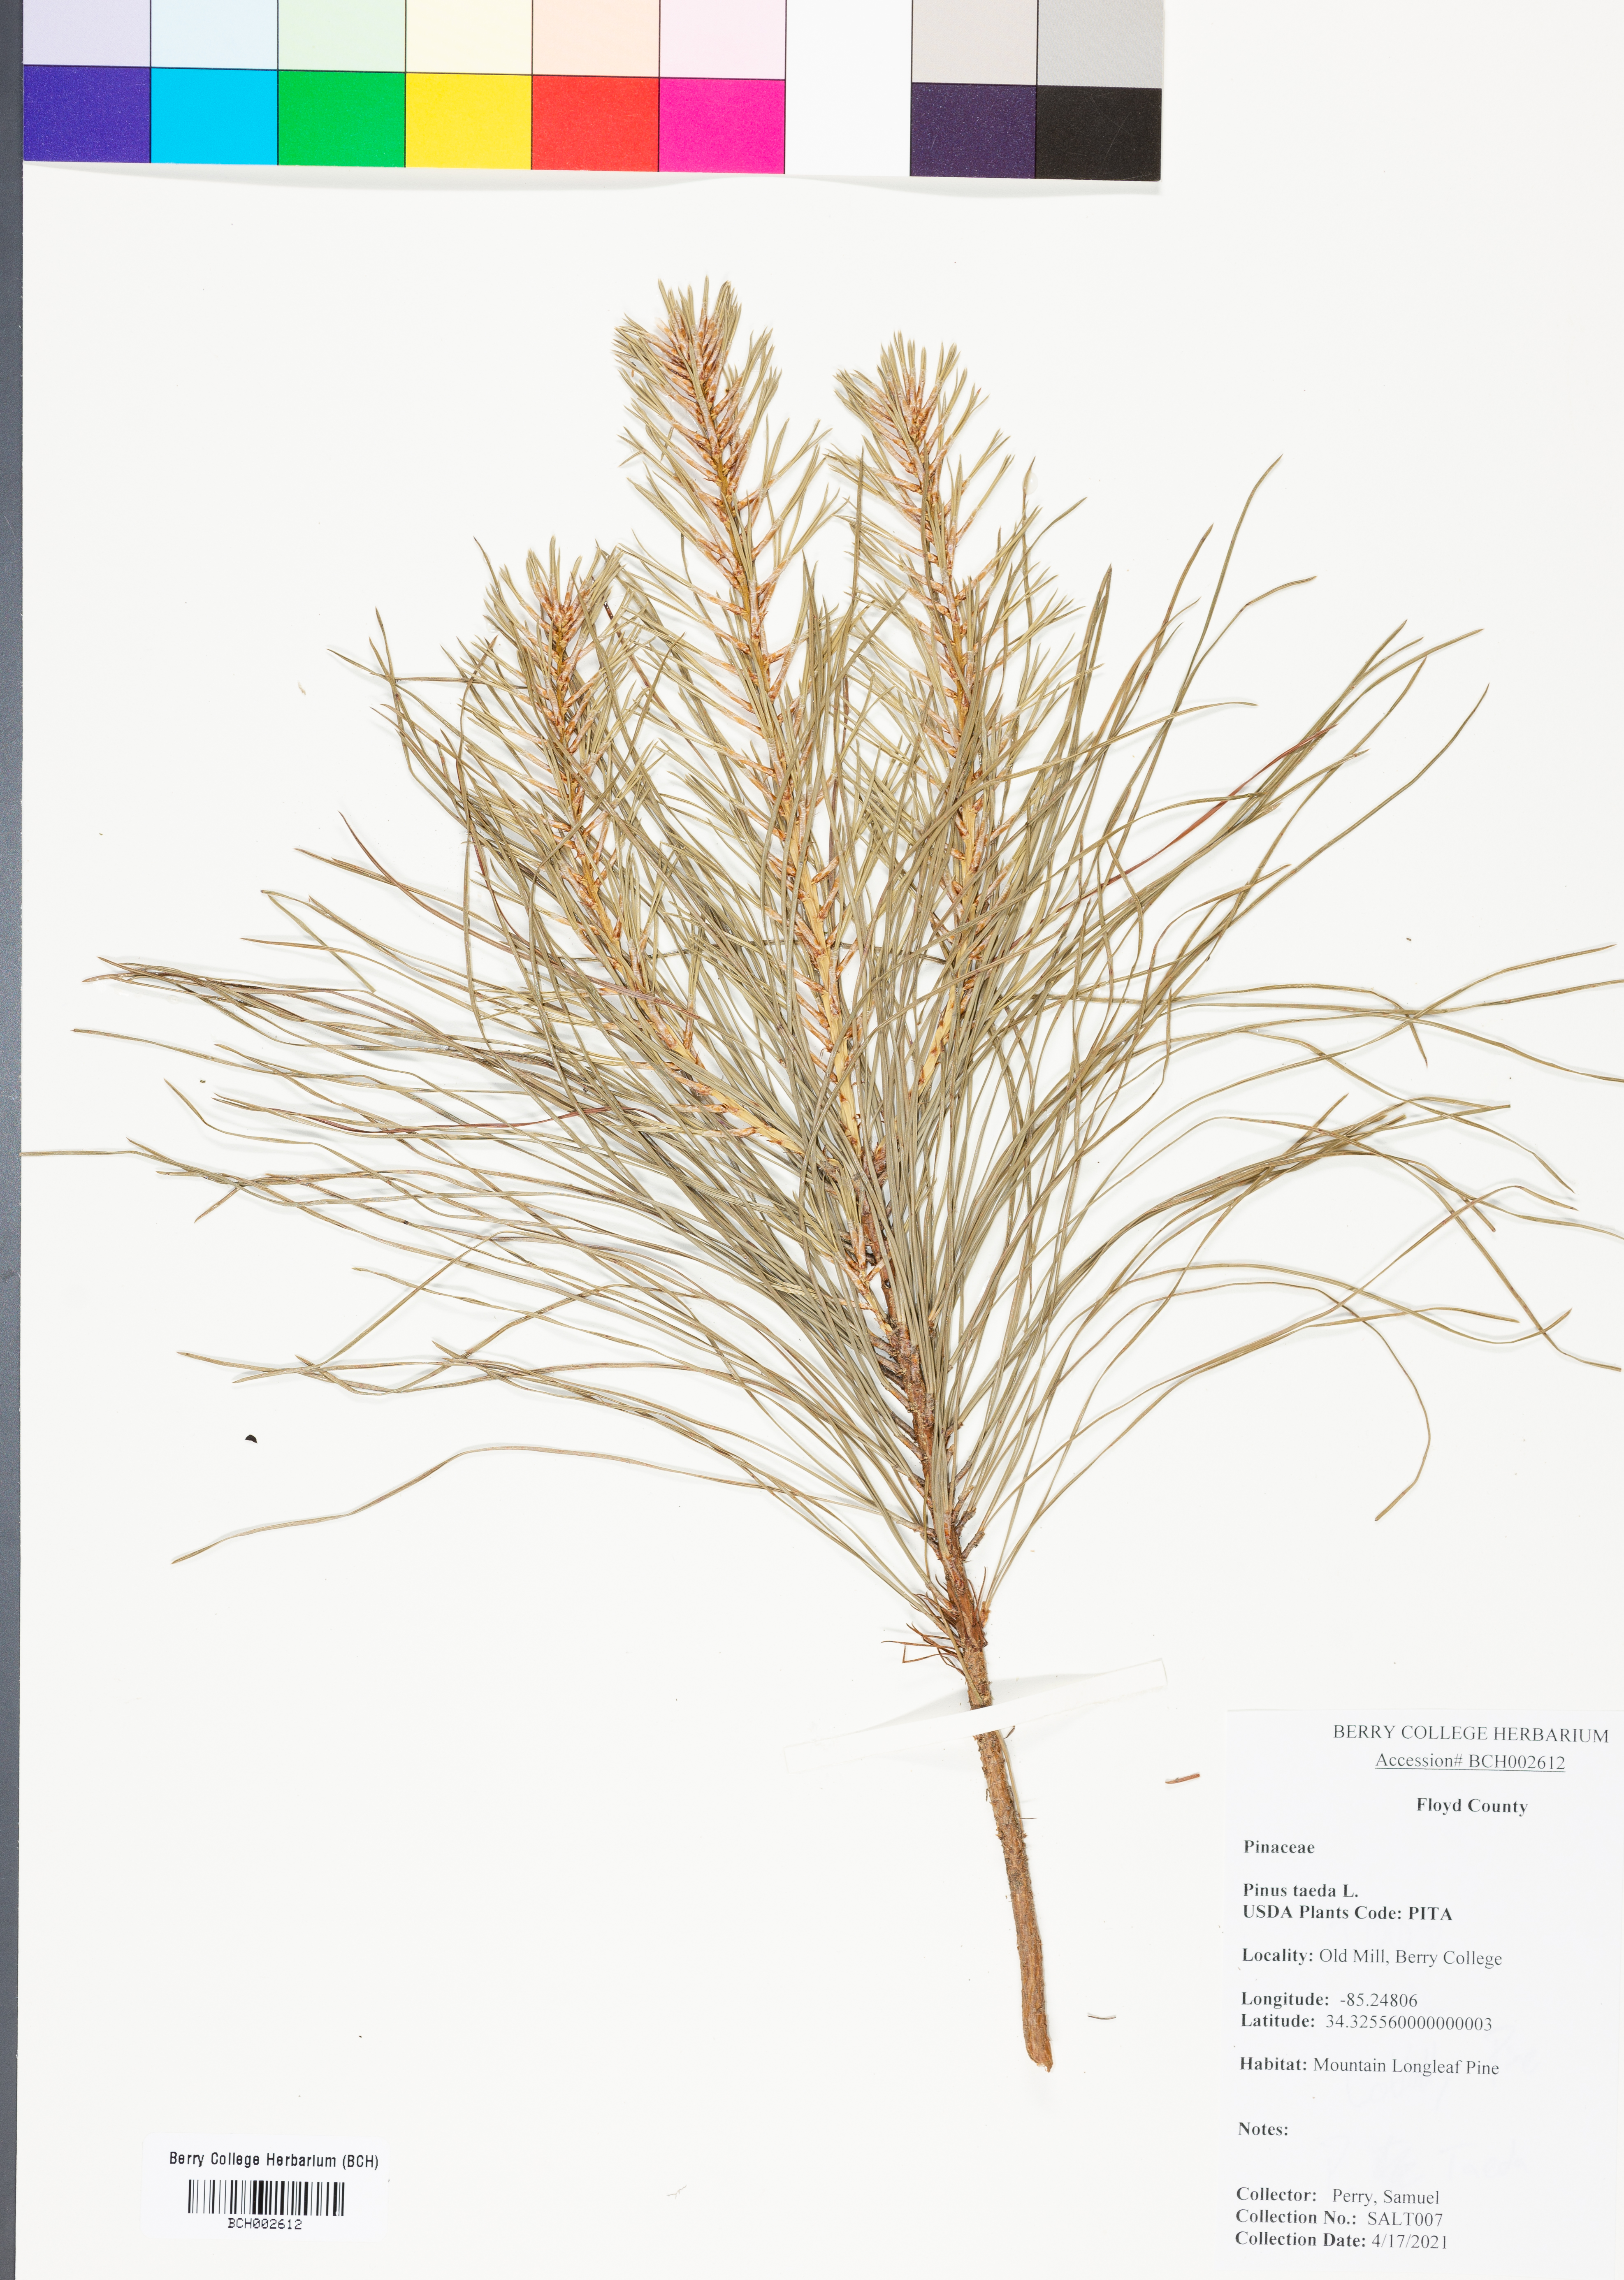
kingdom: Plantae
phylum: Tracheophyta
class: Pinopsida
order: Pinales
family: Pinaceae
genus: Pinus
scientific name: Pinus taeda
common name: Loblolly pine
